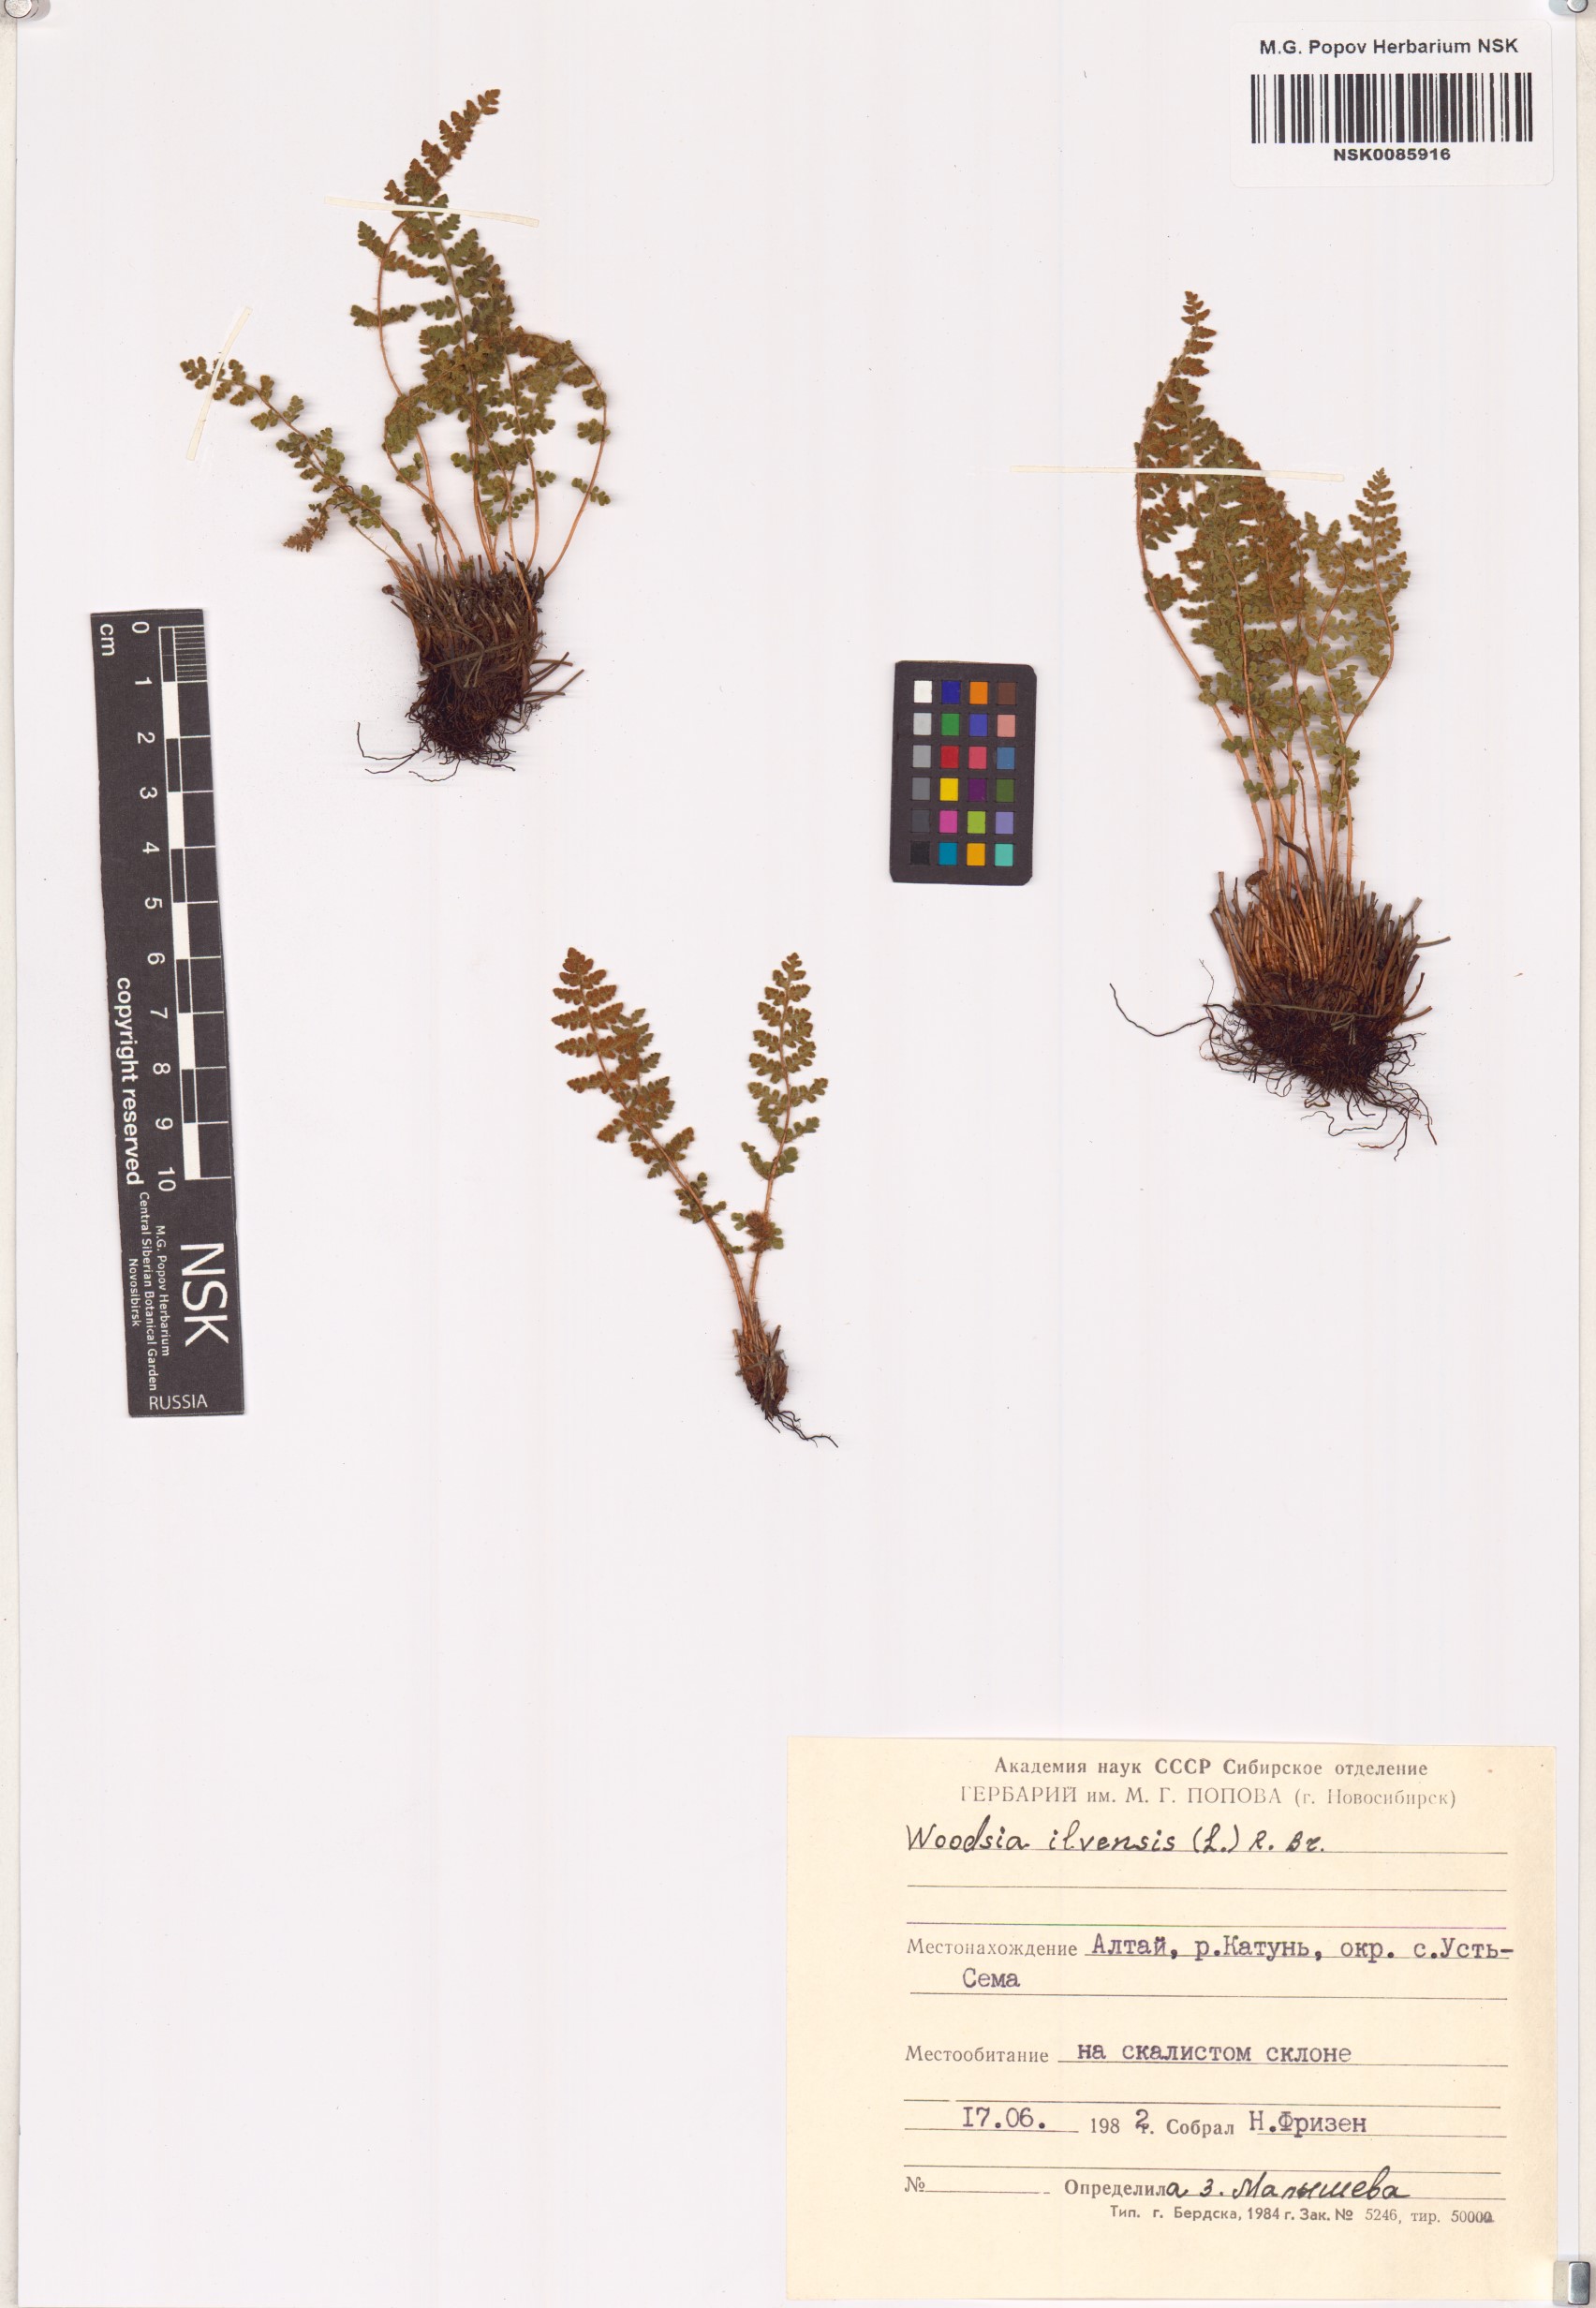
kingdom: Plantae
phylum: Tracheophyta
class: Polypodiopsida
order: Polypodiales
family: Woodsiaceae
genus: Woodsia
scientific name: Woodsia ilvensis
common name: Fragrant woodsia
